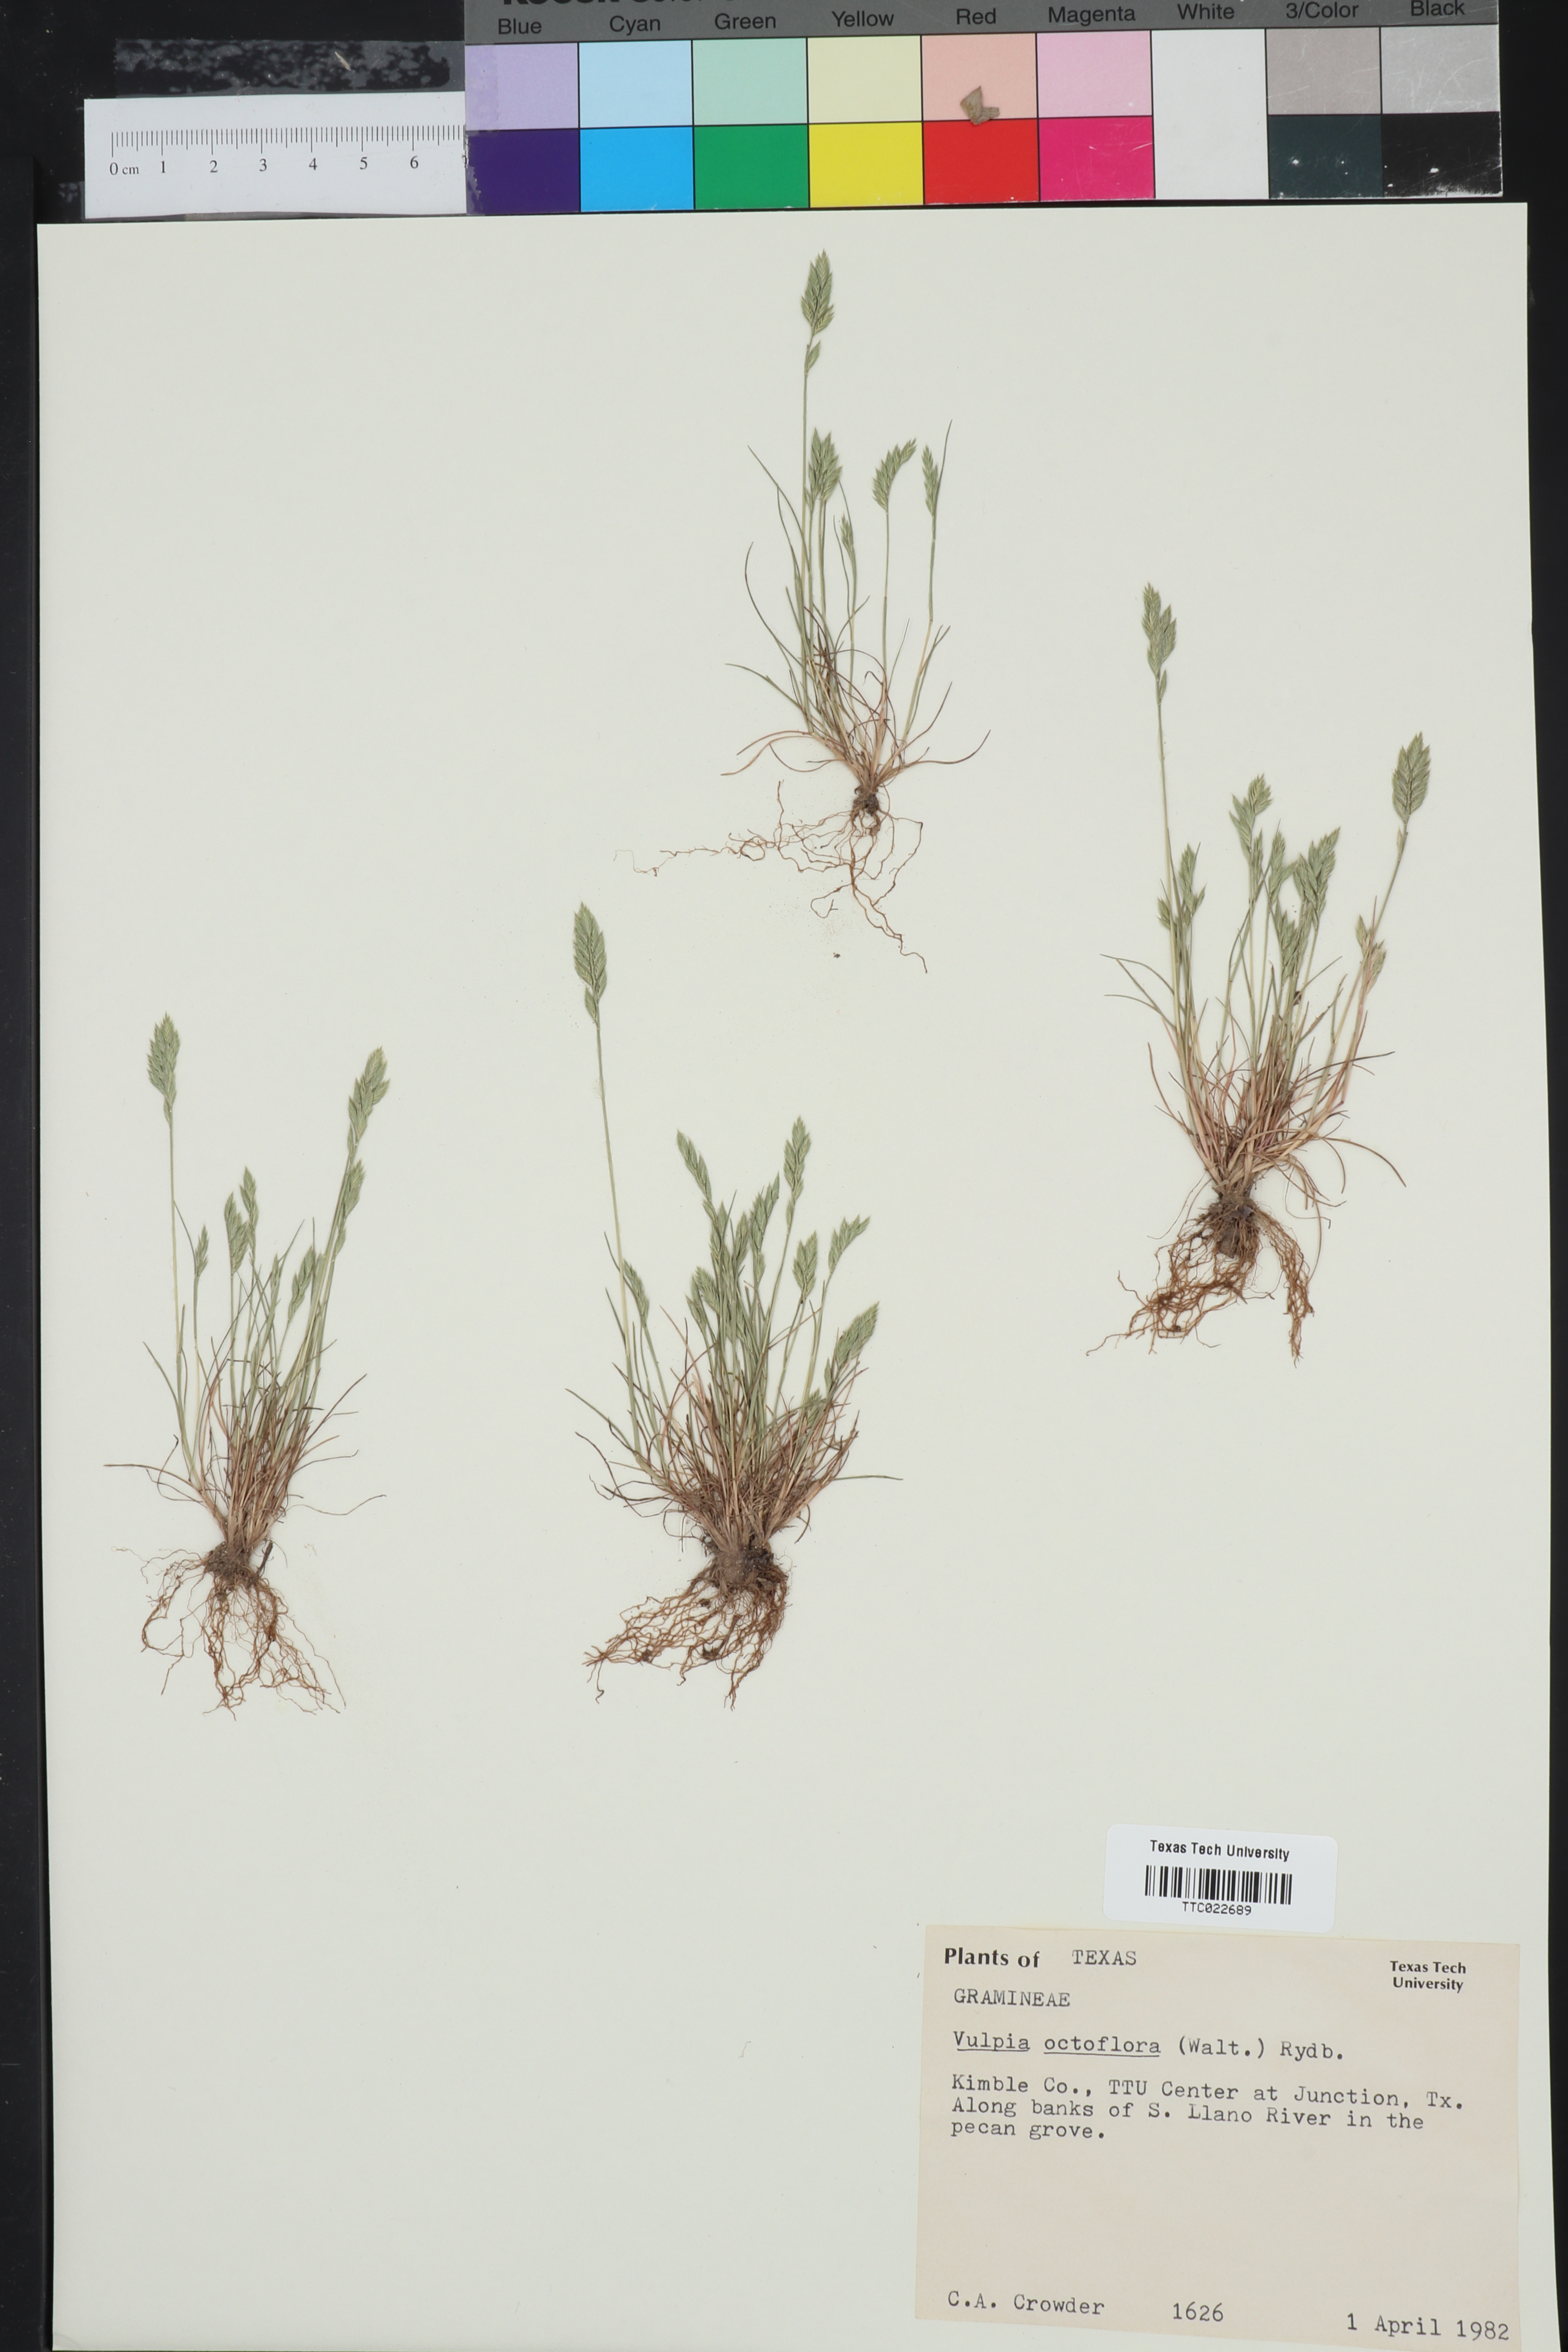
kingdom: Plantae
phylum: Tracheophyta
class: Liliopsida
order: Poales
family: Poaceae
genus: Festuca
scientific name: Festuca octoflora
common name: Sixweeks grass
